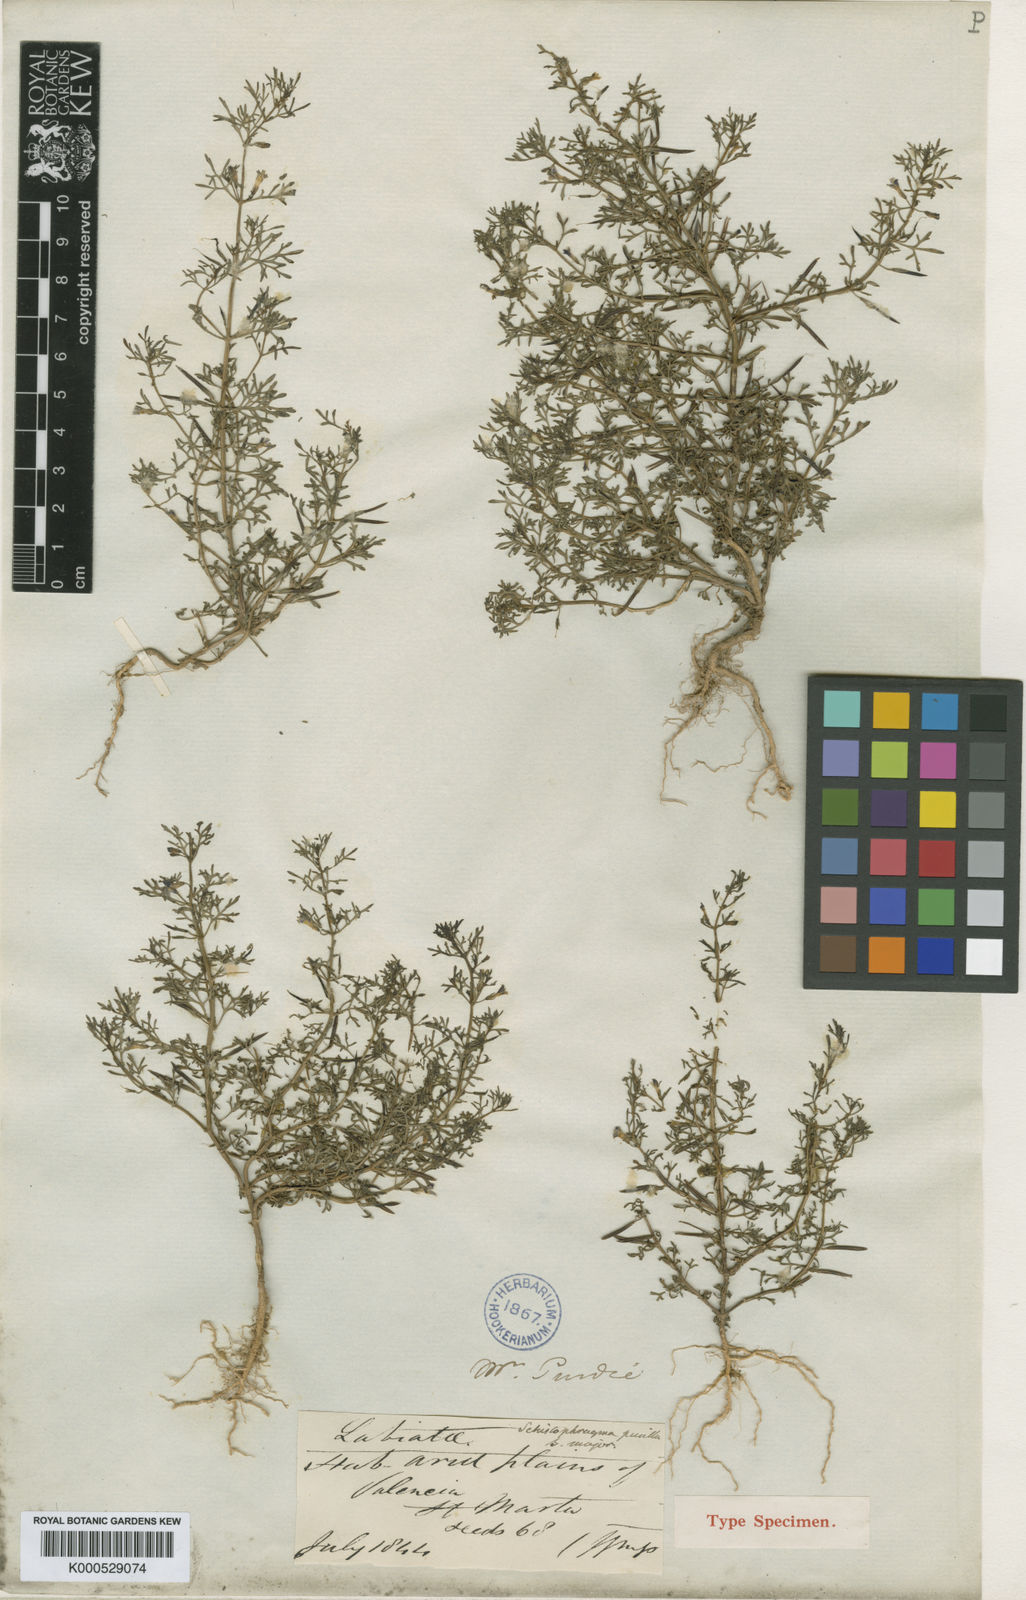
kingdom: Plantae
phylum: Tracheophyta
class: Magnoliopsida
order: Lamiales
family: Plantaginaceae
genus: Schistophragma
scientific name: Schistophragma mexicanum
